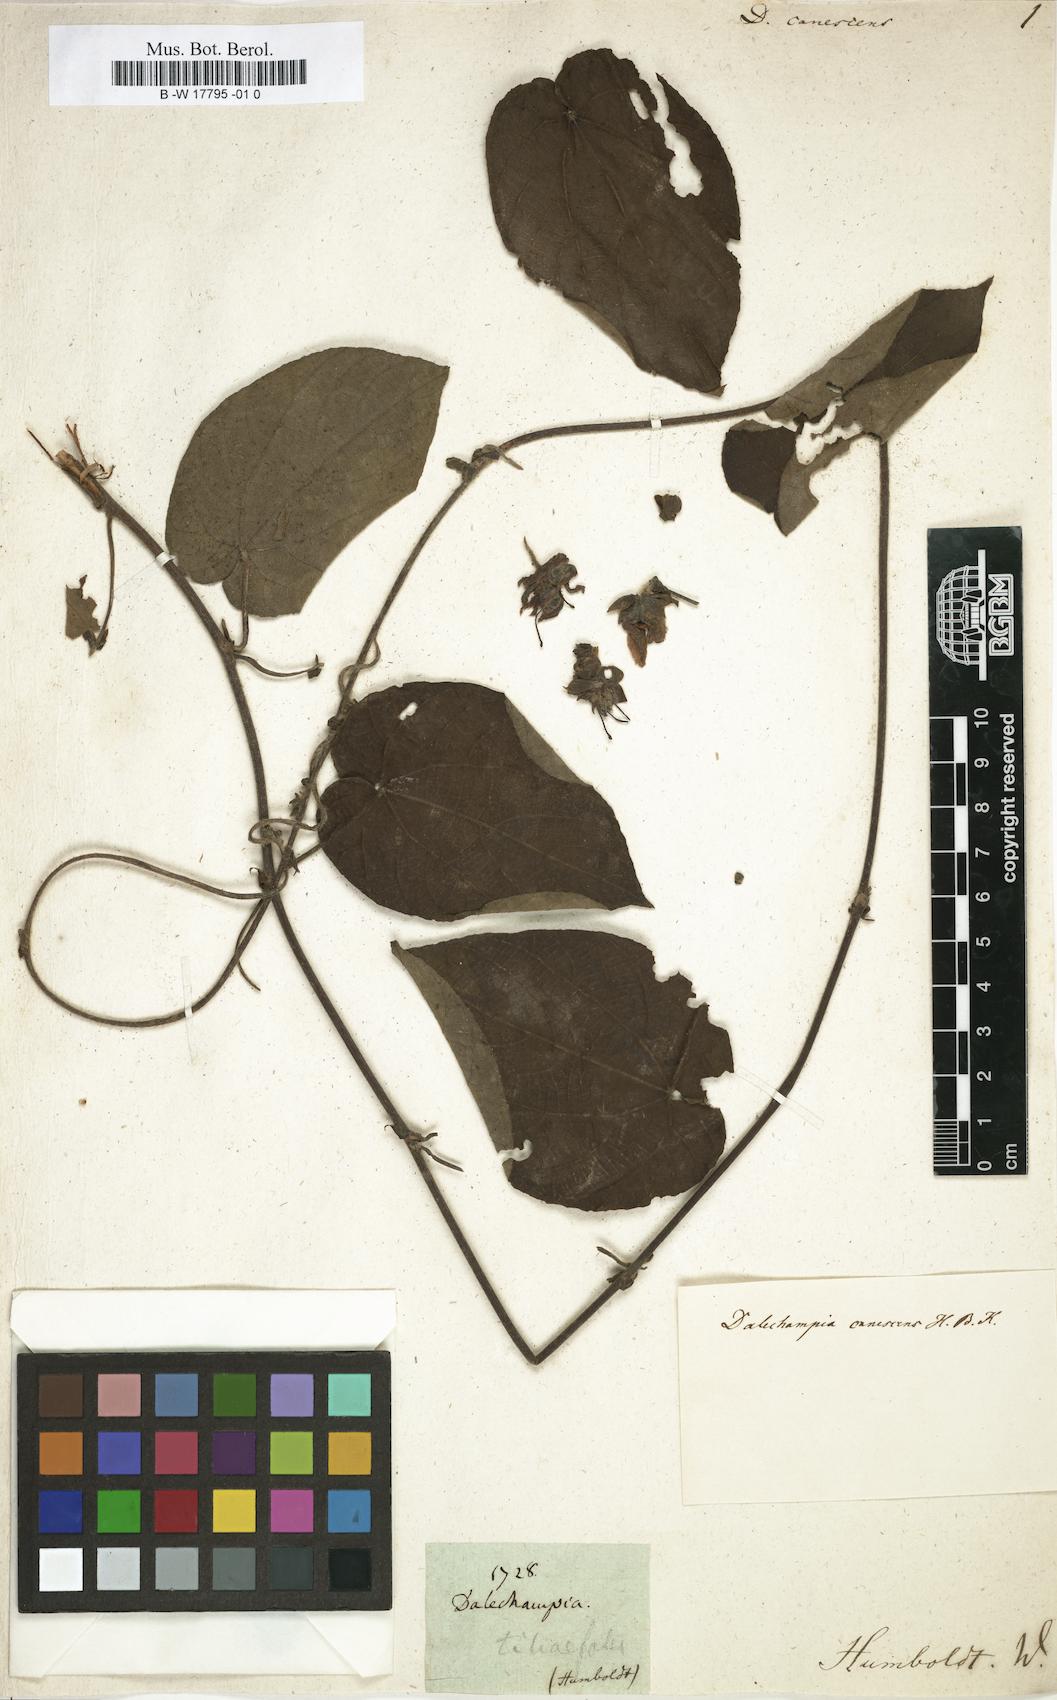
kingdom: Plantae
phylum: Tracheophyta
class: Magnoliopsida
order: Malpighiales
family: Euphorbiaceae
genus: Dalechampia
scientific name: Dalechampia canescens
